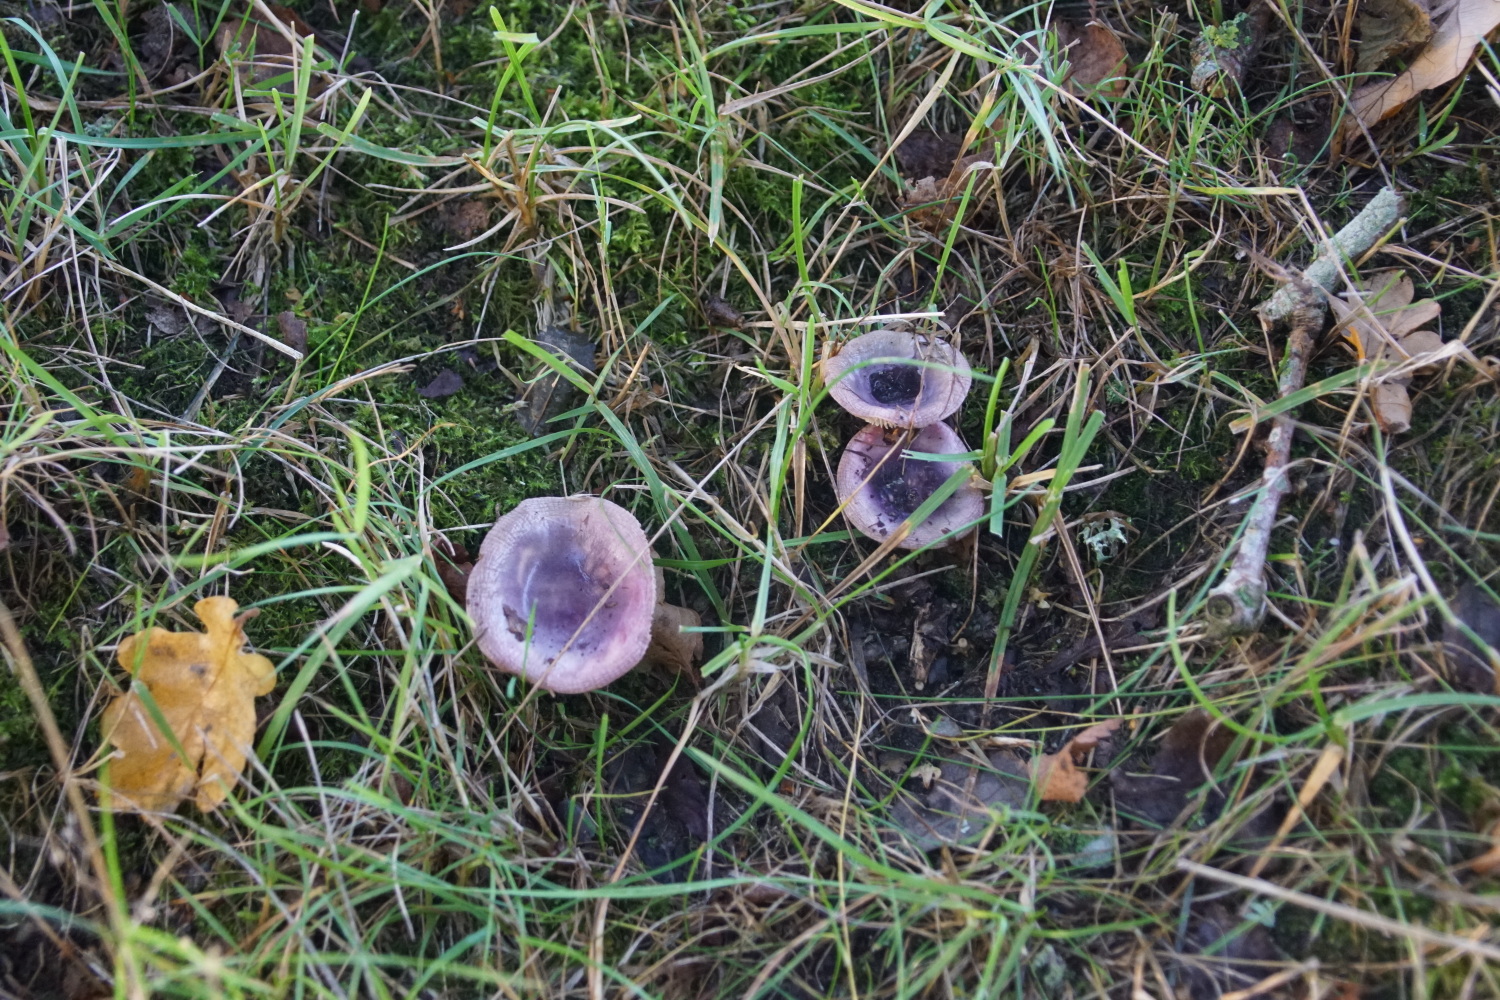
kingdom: Fungi
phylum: Basidiomycota
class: Agaricomycetes
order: Russulales
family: Russulaceae
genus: Russula
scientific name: Russula fragilis
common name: savbladet skørhat
